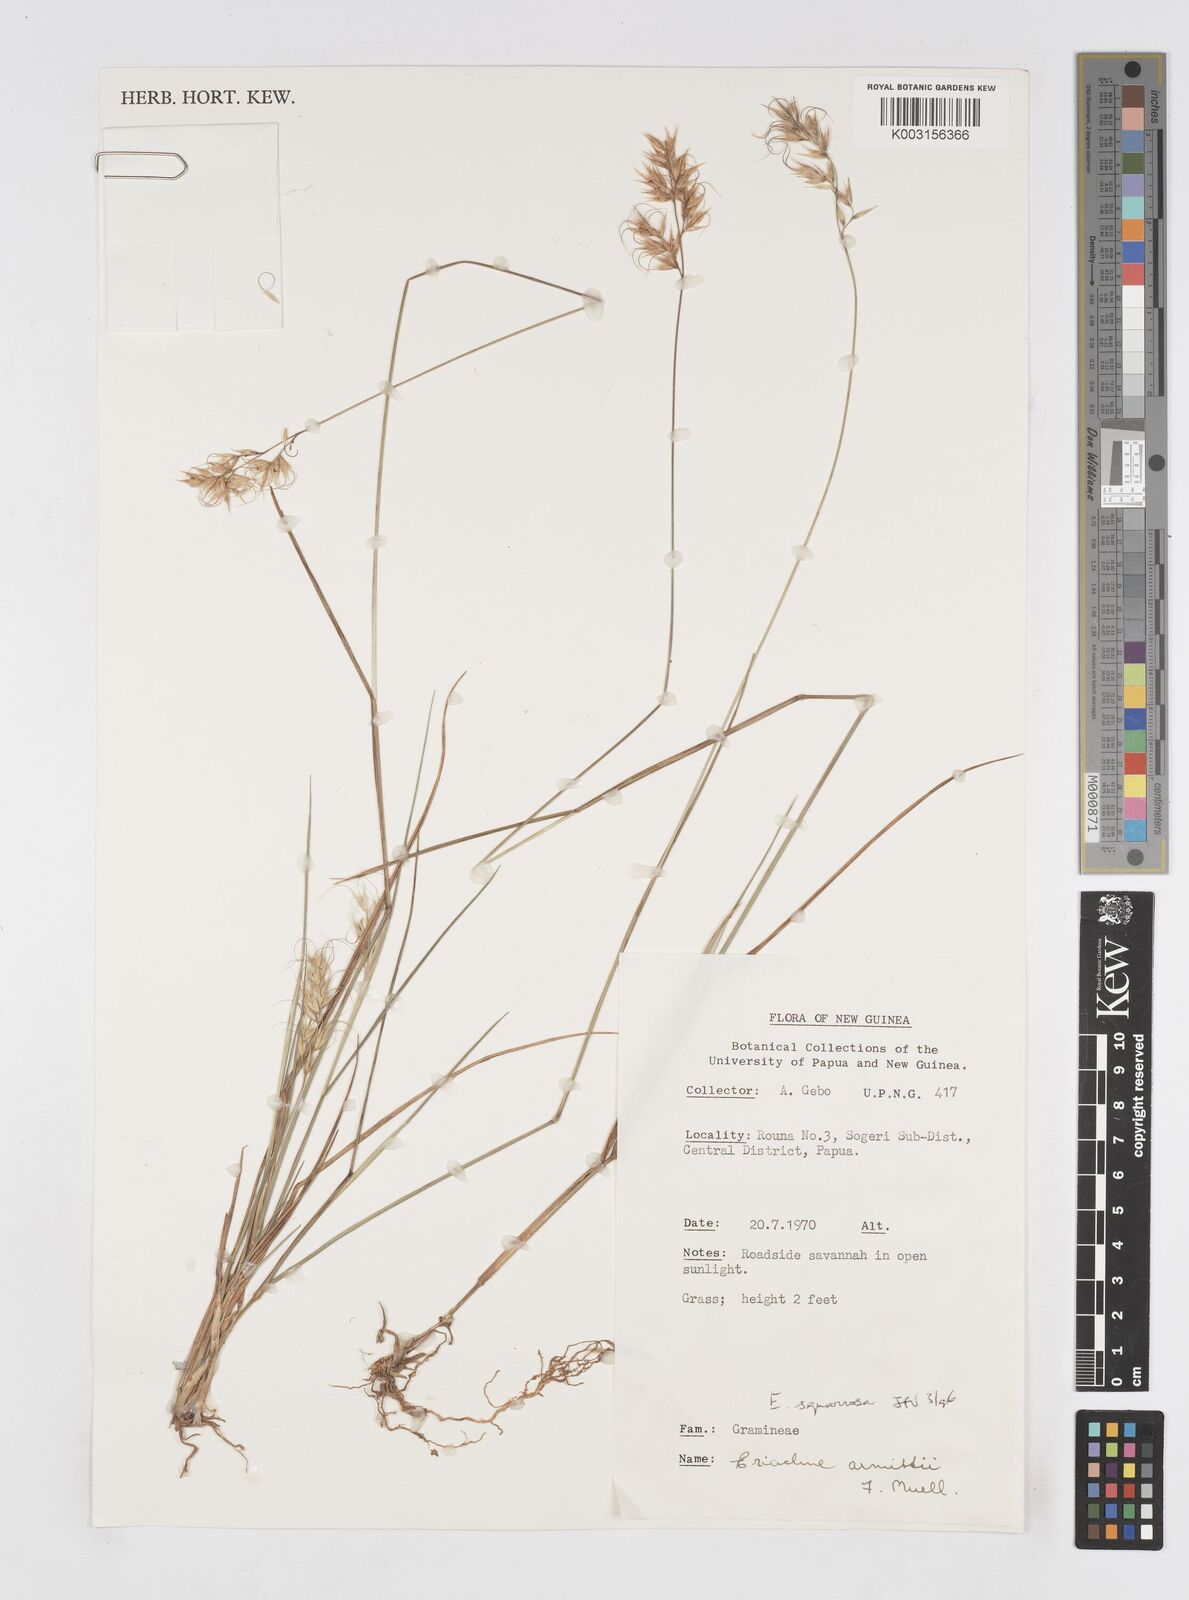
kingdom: Plantae
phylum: Tracheophyta
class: Liliopsida
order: Poales
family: Poaceae
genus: Eriachne
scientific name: Eriachne squarrosa
